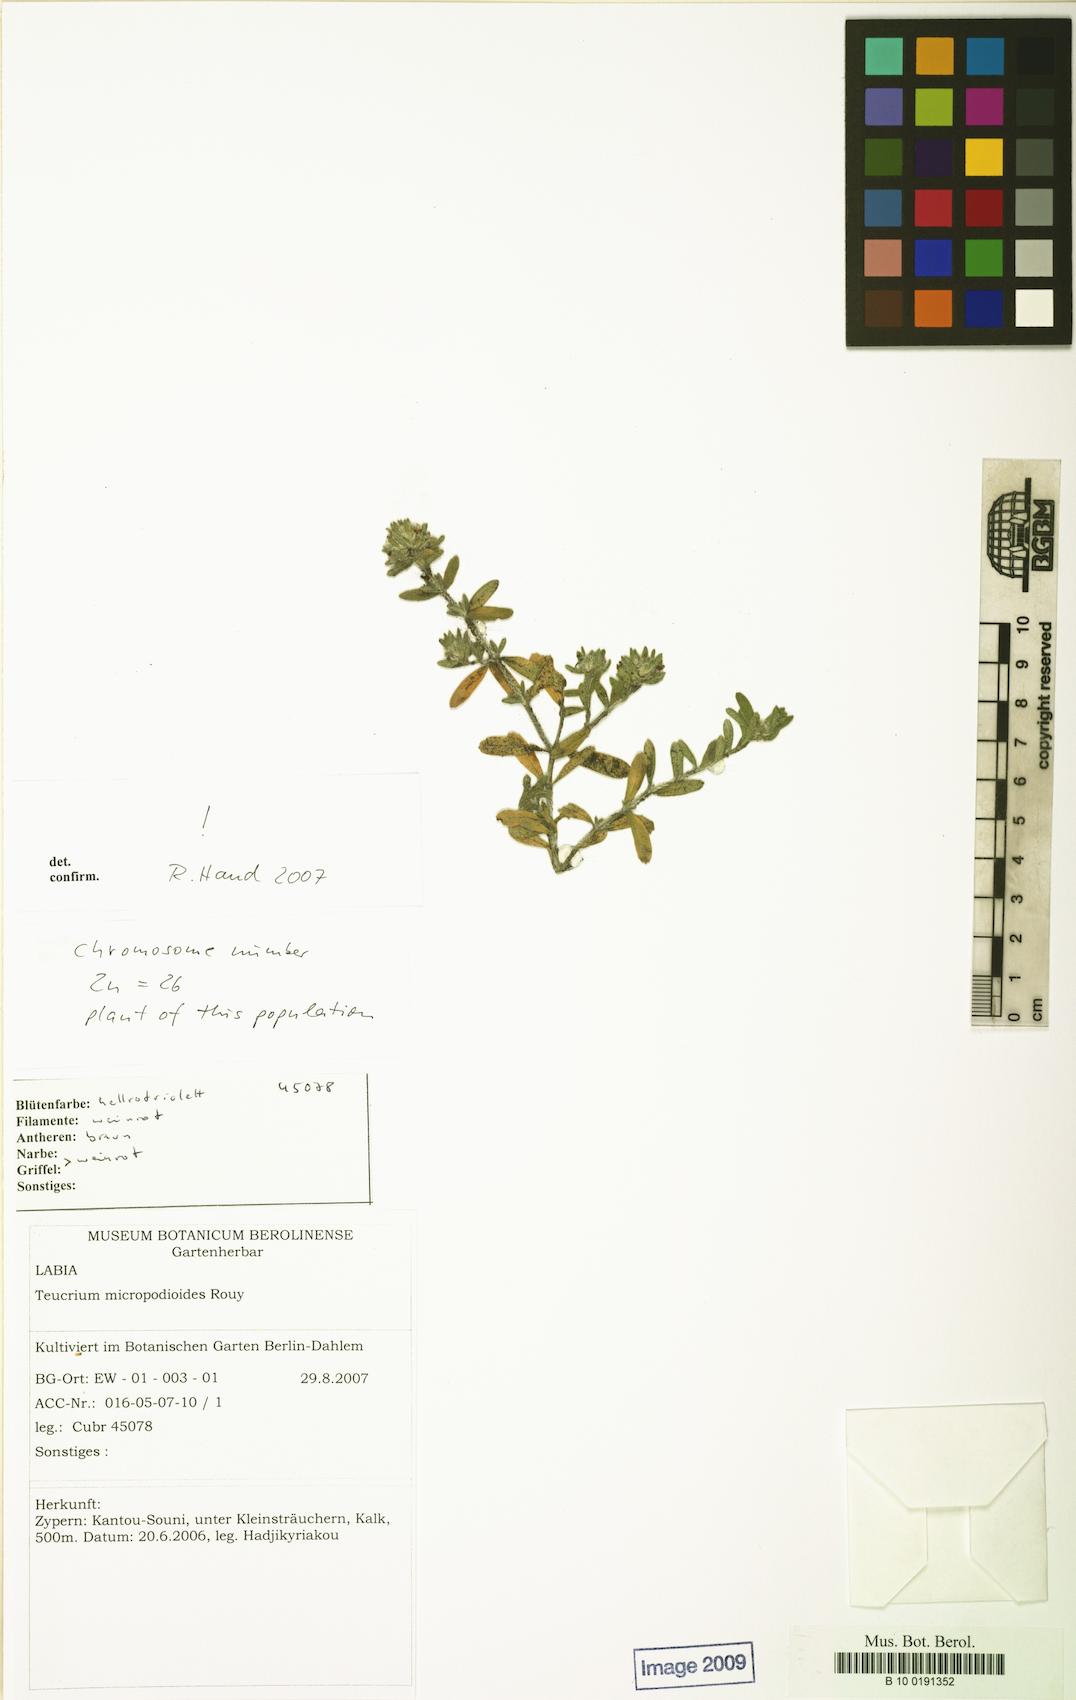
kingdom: Plantae
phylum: Tracheophyta
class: Magnoliopsida
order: Lamiales
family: Lamiaceae
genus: Teucrium
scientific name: Teucrium micropodioides
